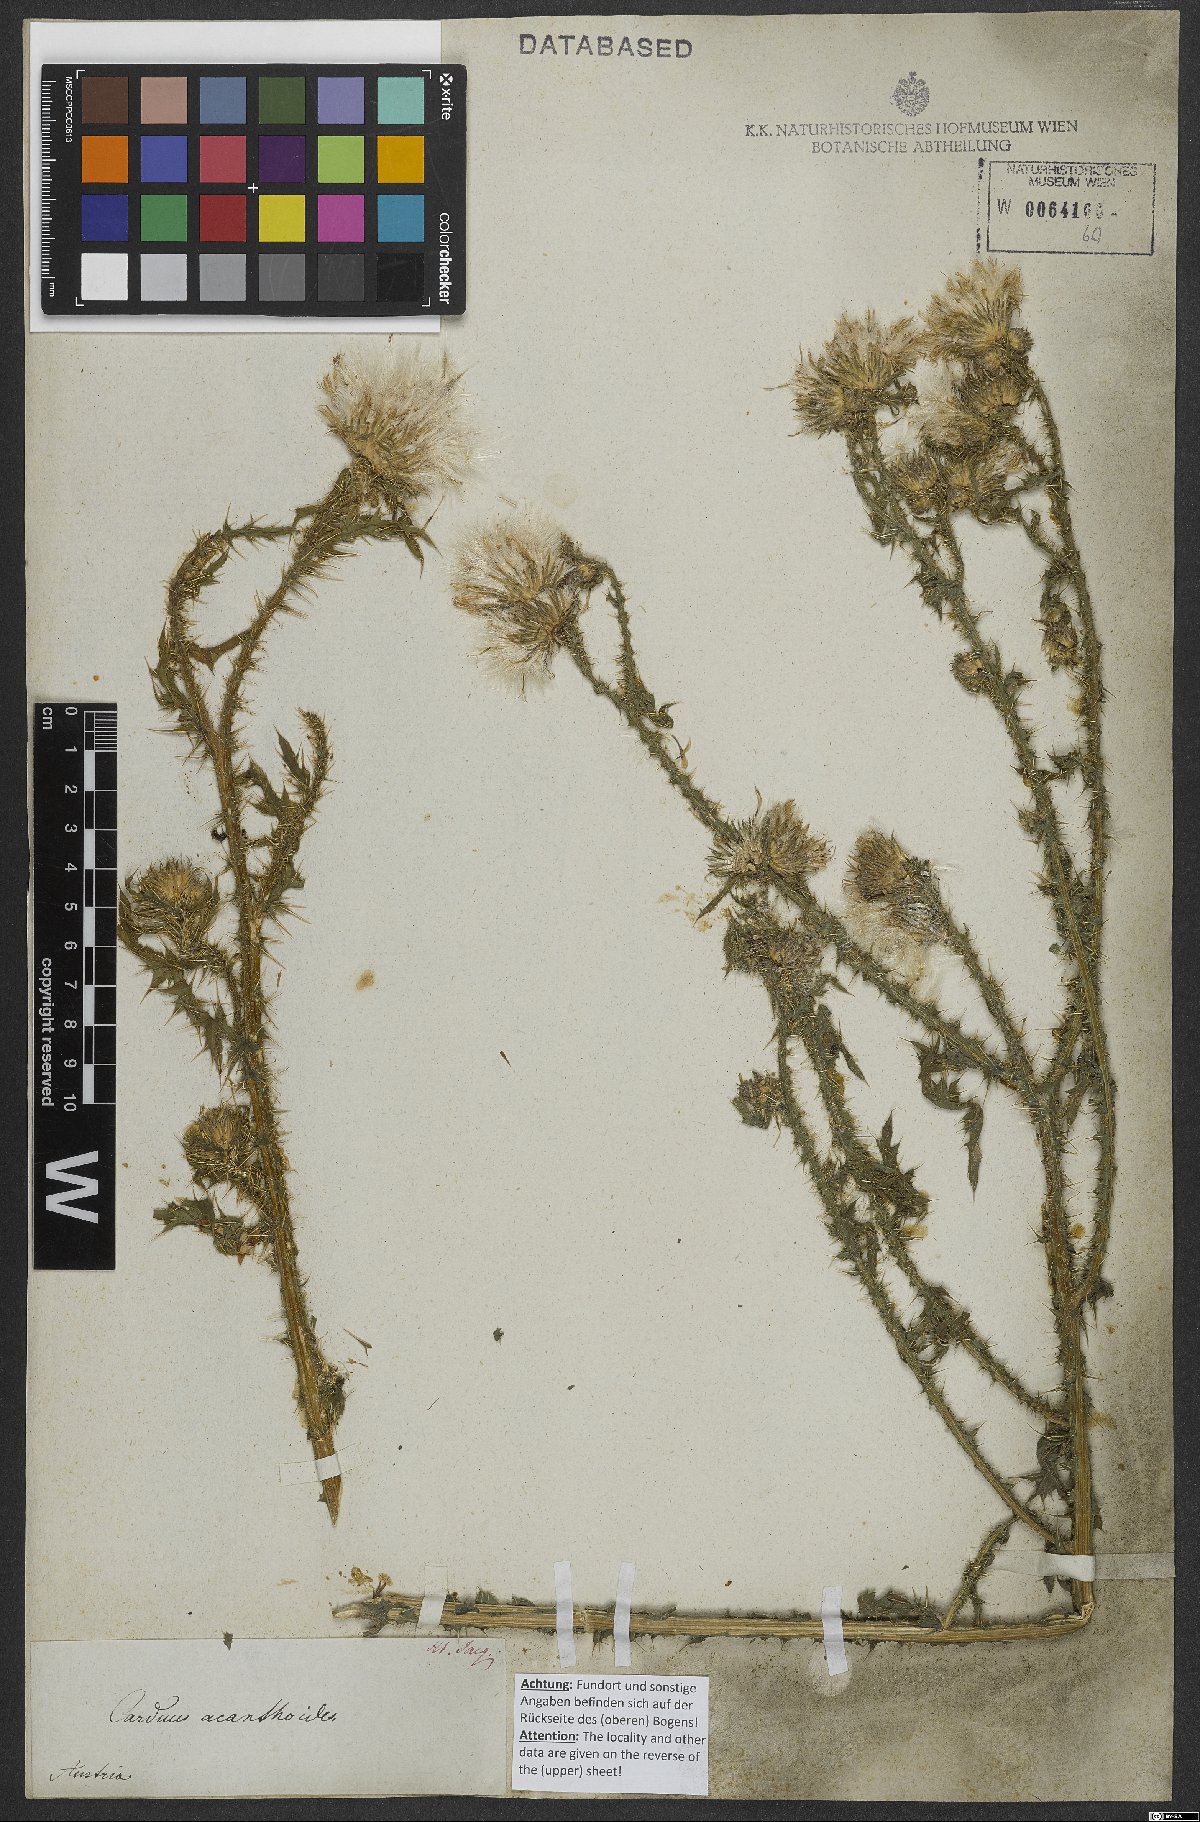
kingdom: Plantae
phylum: Tracheophyta
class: Magnoliopsida
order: Asterales
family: Asteraceae
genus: Carduus
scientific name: Carduus acanthoides
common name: Plumeless thistle
